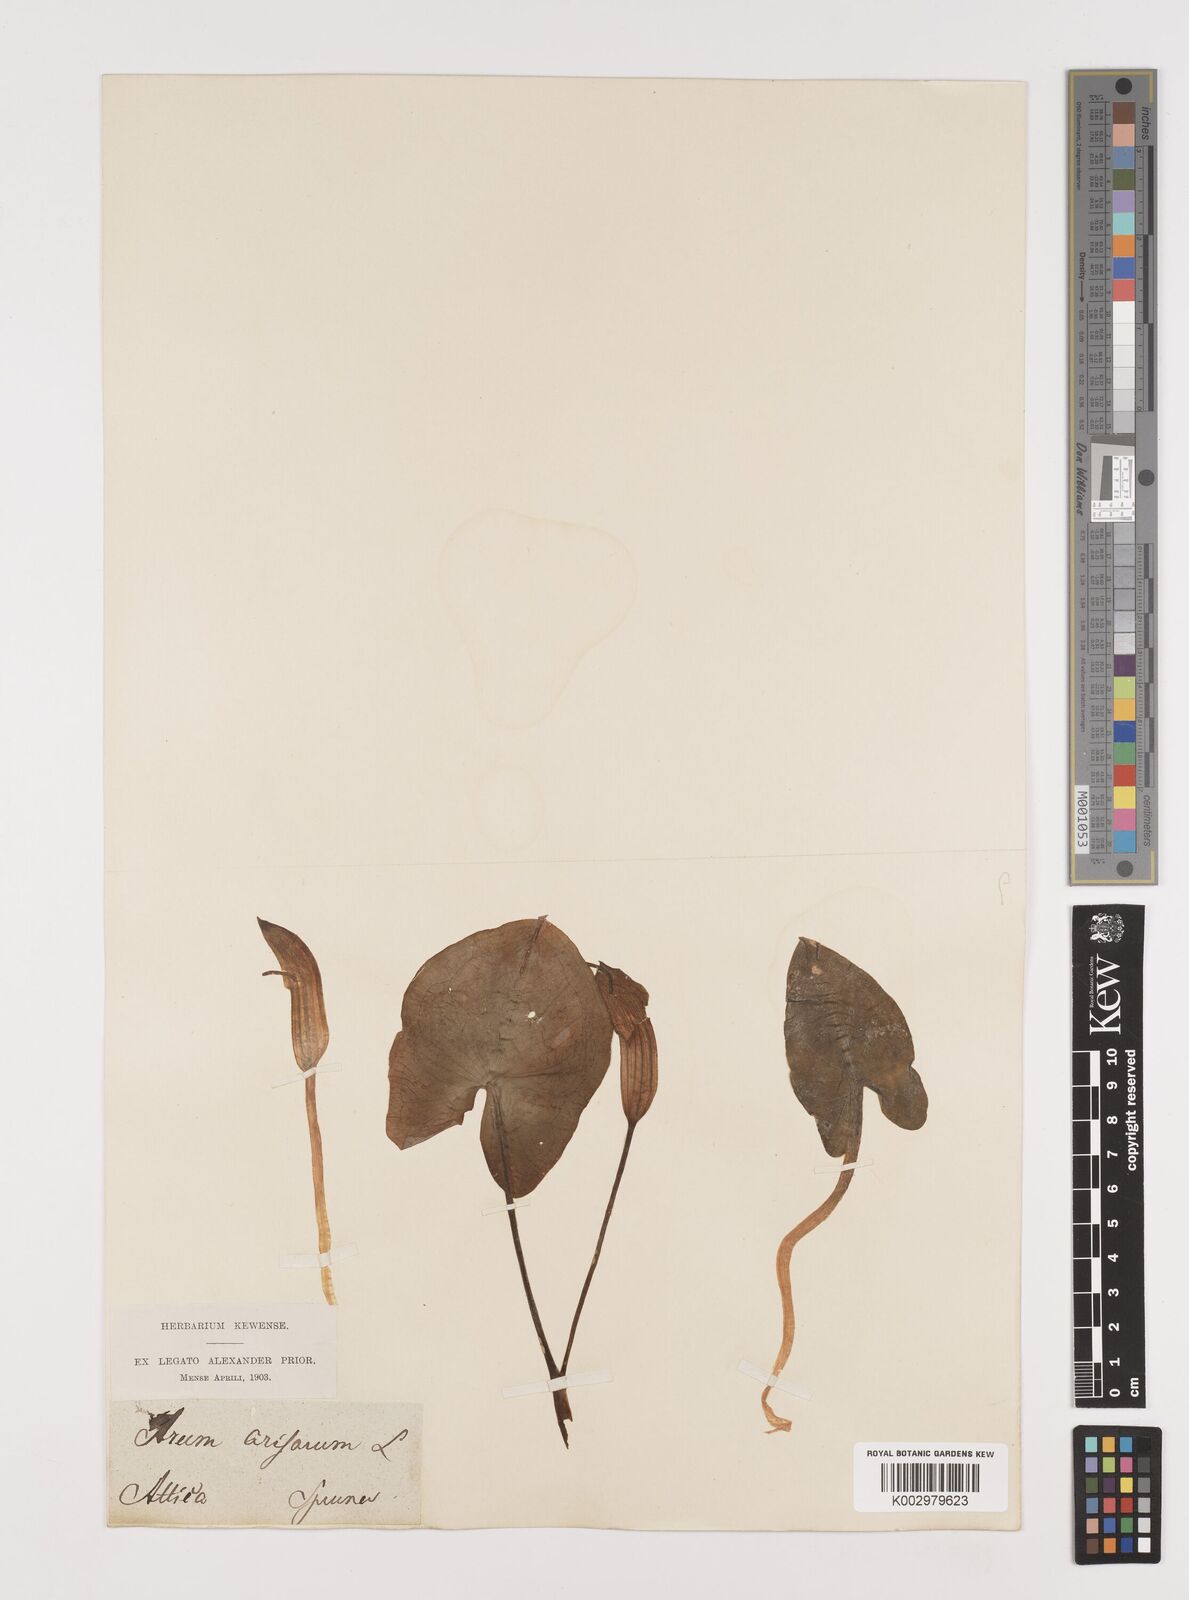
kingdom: Plantae
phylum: Tracheophyta
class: Liliopsida
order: Alismatales
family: Araceae
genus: Arisarum
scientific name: Arisarum vulgare
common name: Common arisarum
